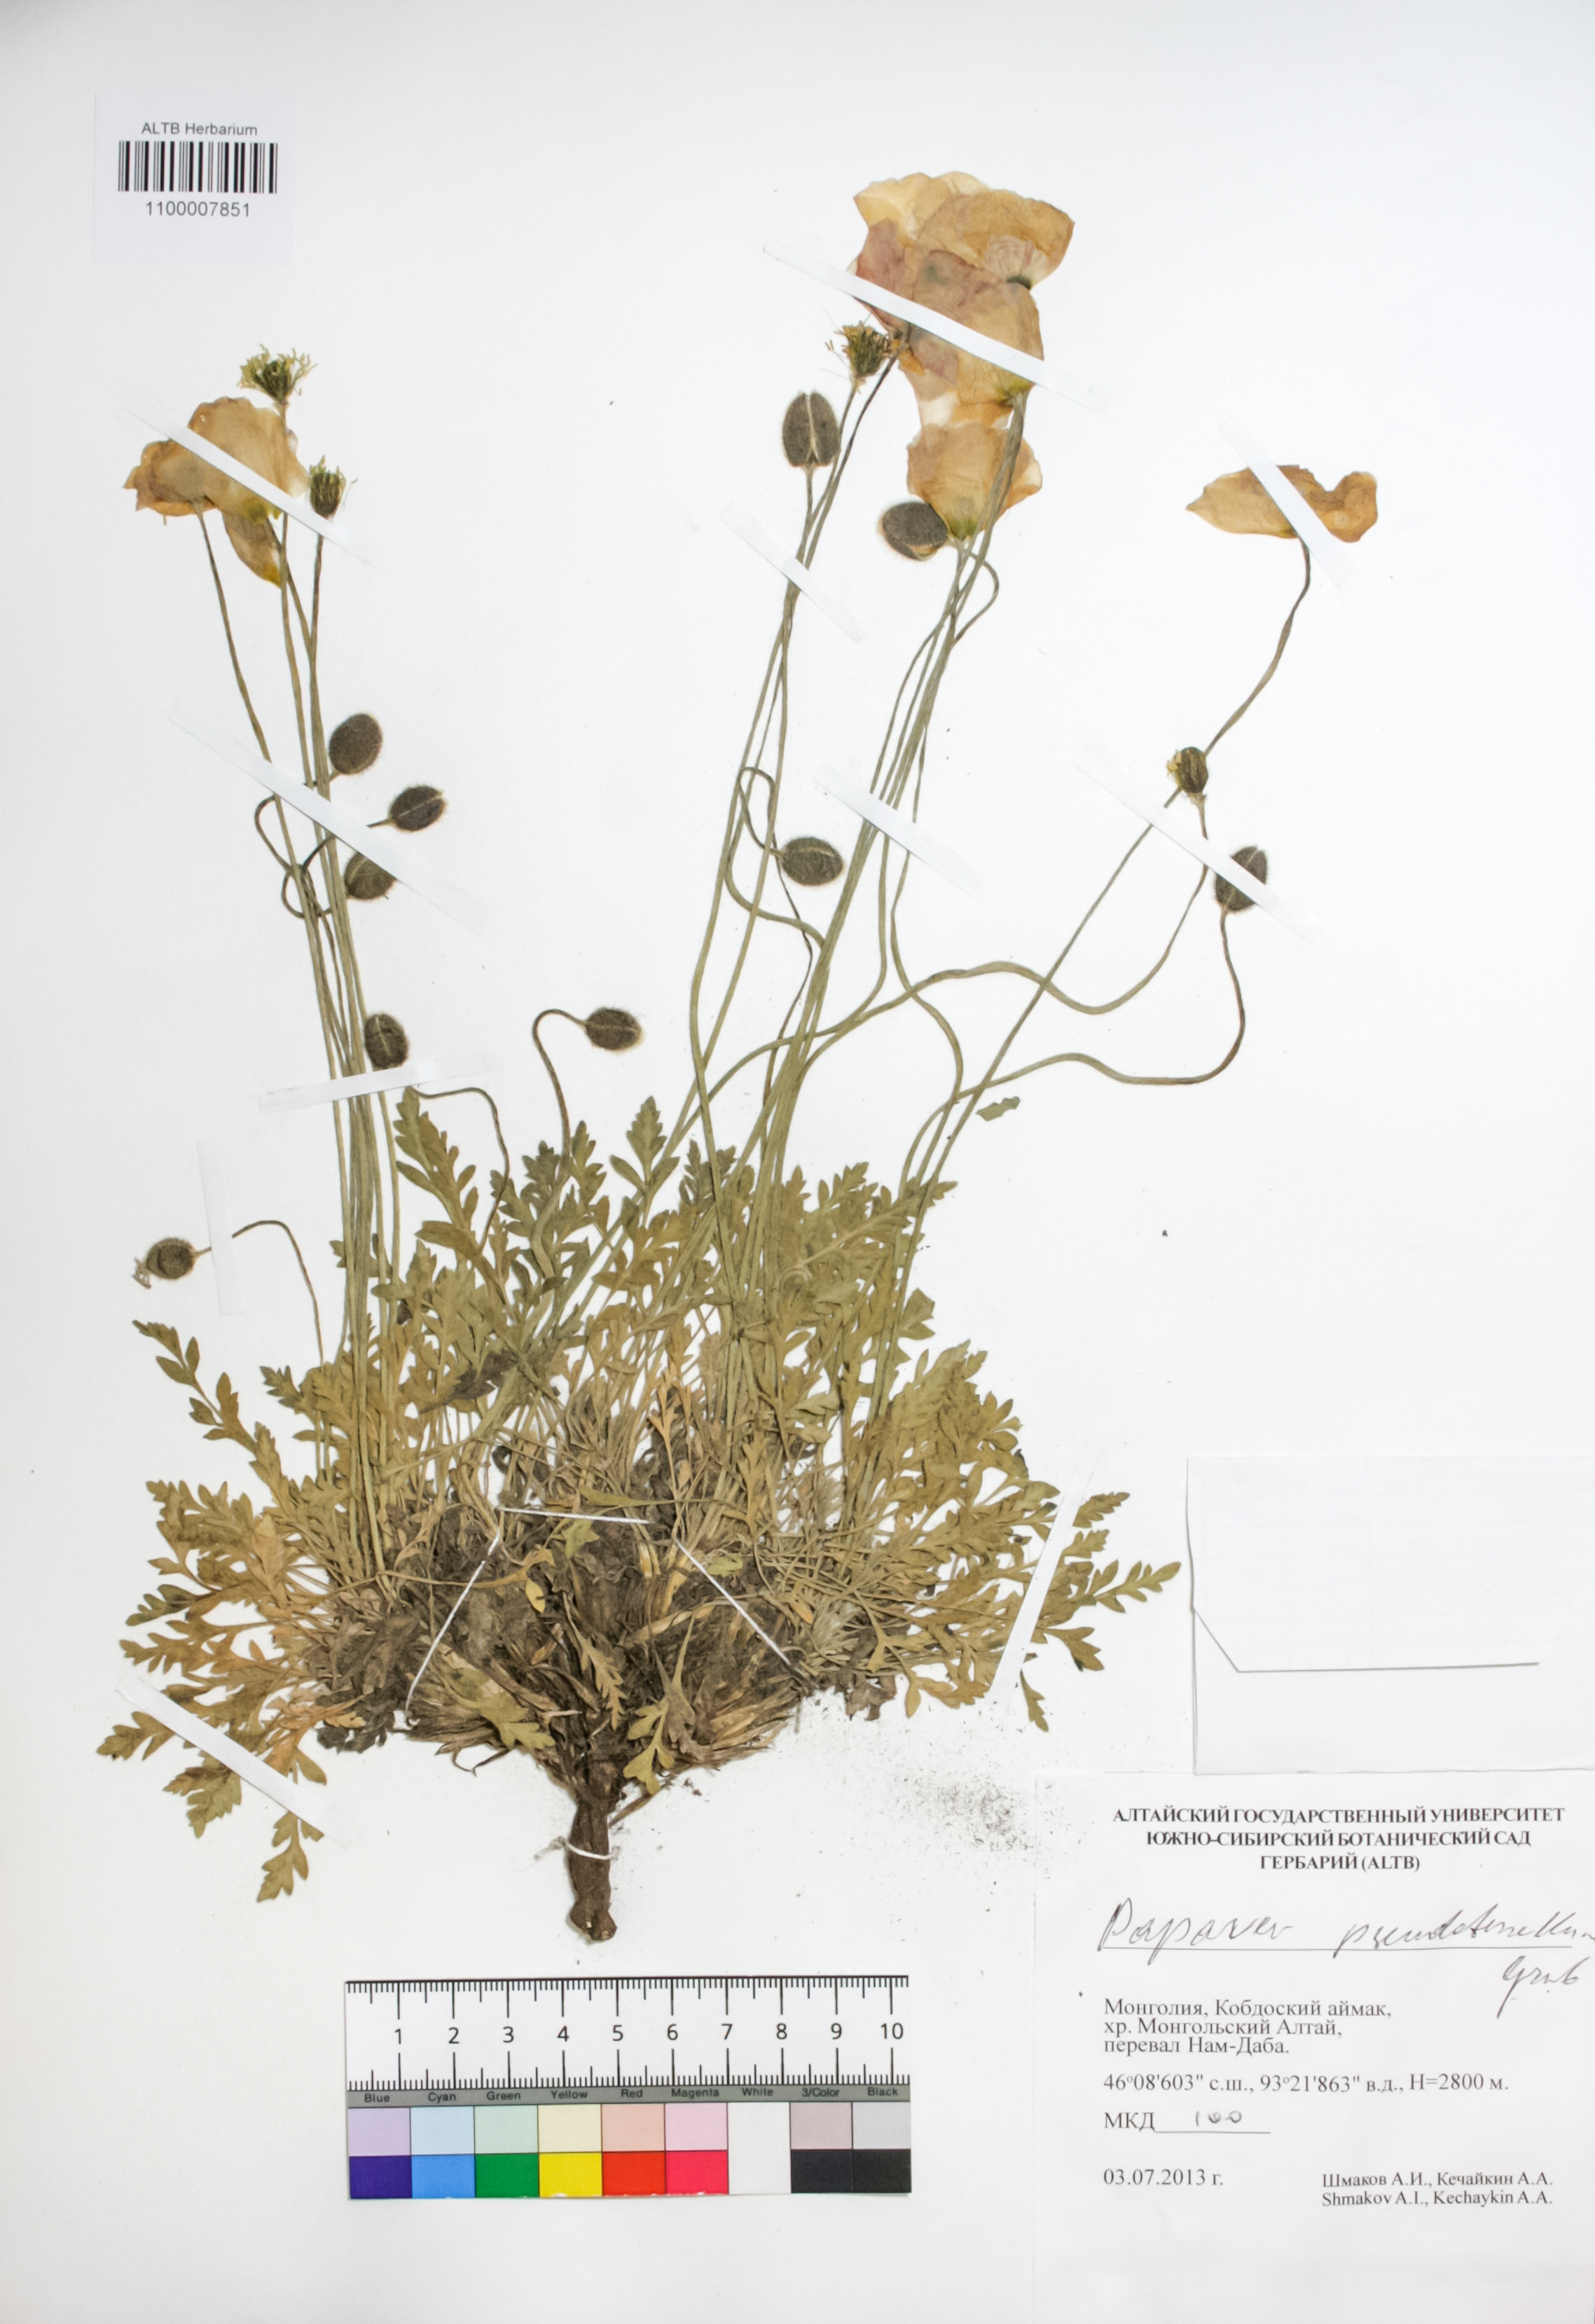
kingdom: Plantae
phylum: Tracheophyta
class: Magnoliopsida
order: Ranunculales
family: Papaveraceae
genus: Papaver
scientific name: Papaver canescens
